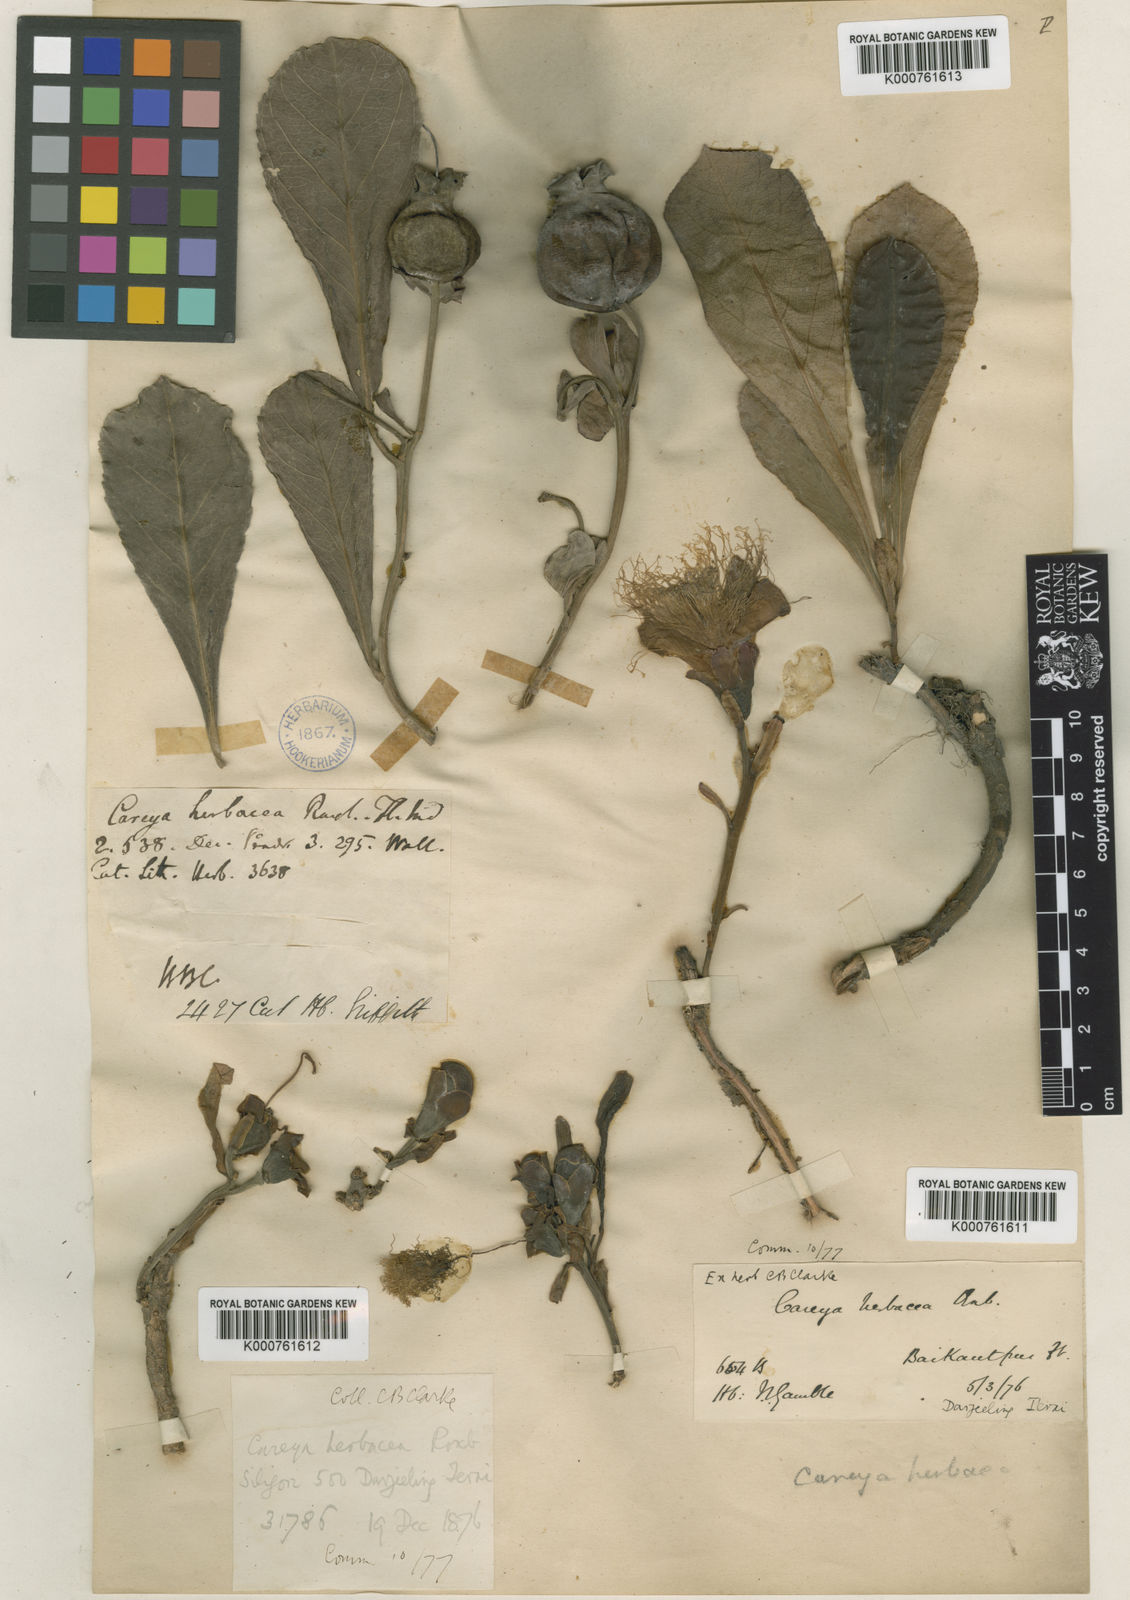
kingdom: Plantae
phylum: Tracheophyta
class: Magnoliopsida
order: Ericales
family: Lecythidaceae
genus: Careya
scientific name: Careya herbacea
